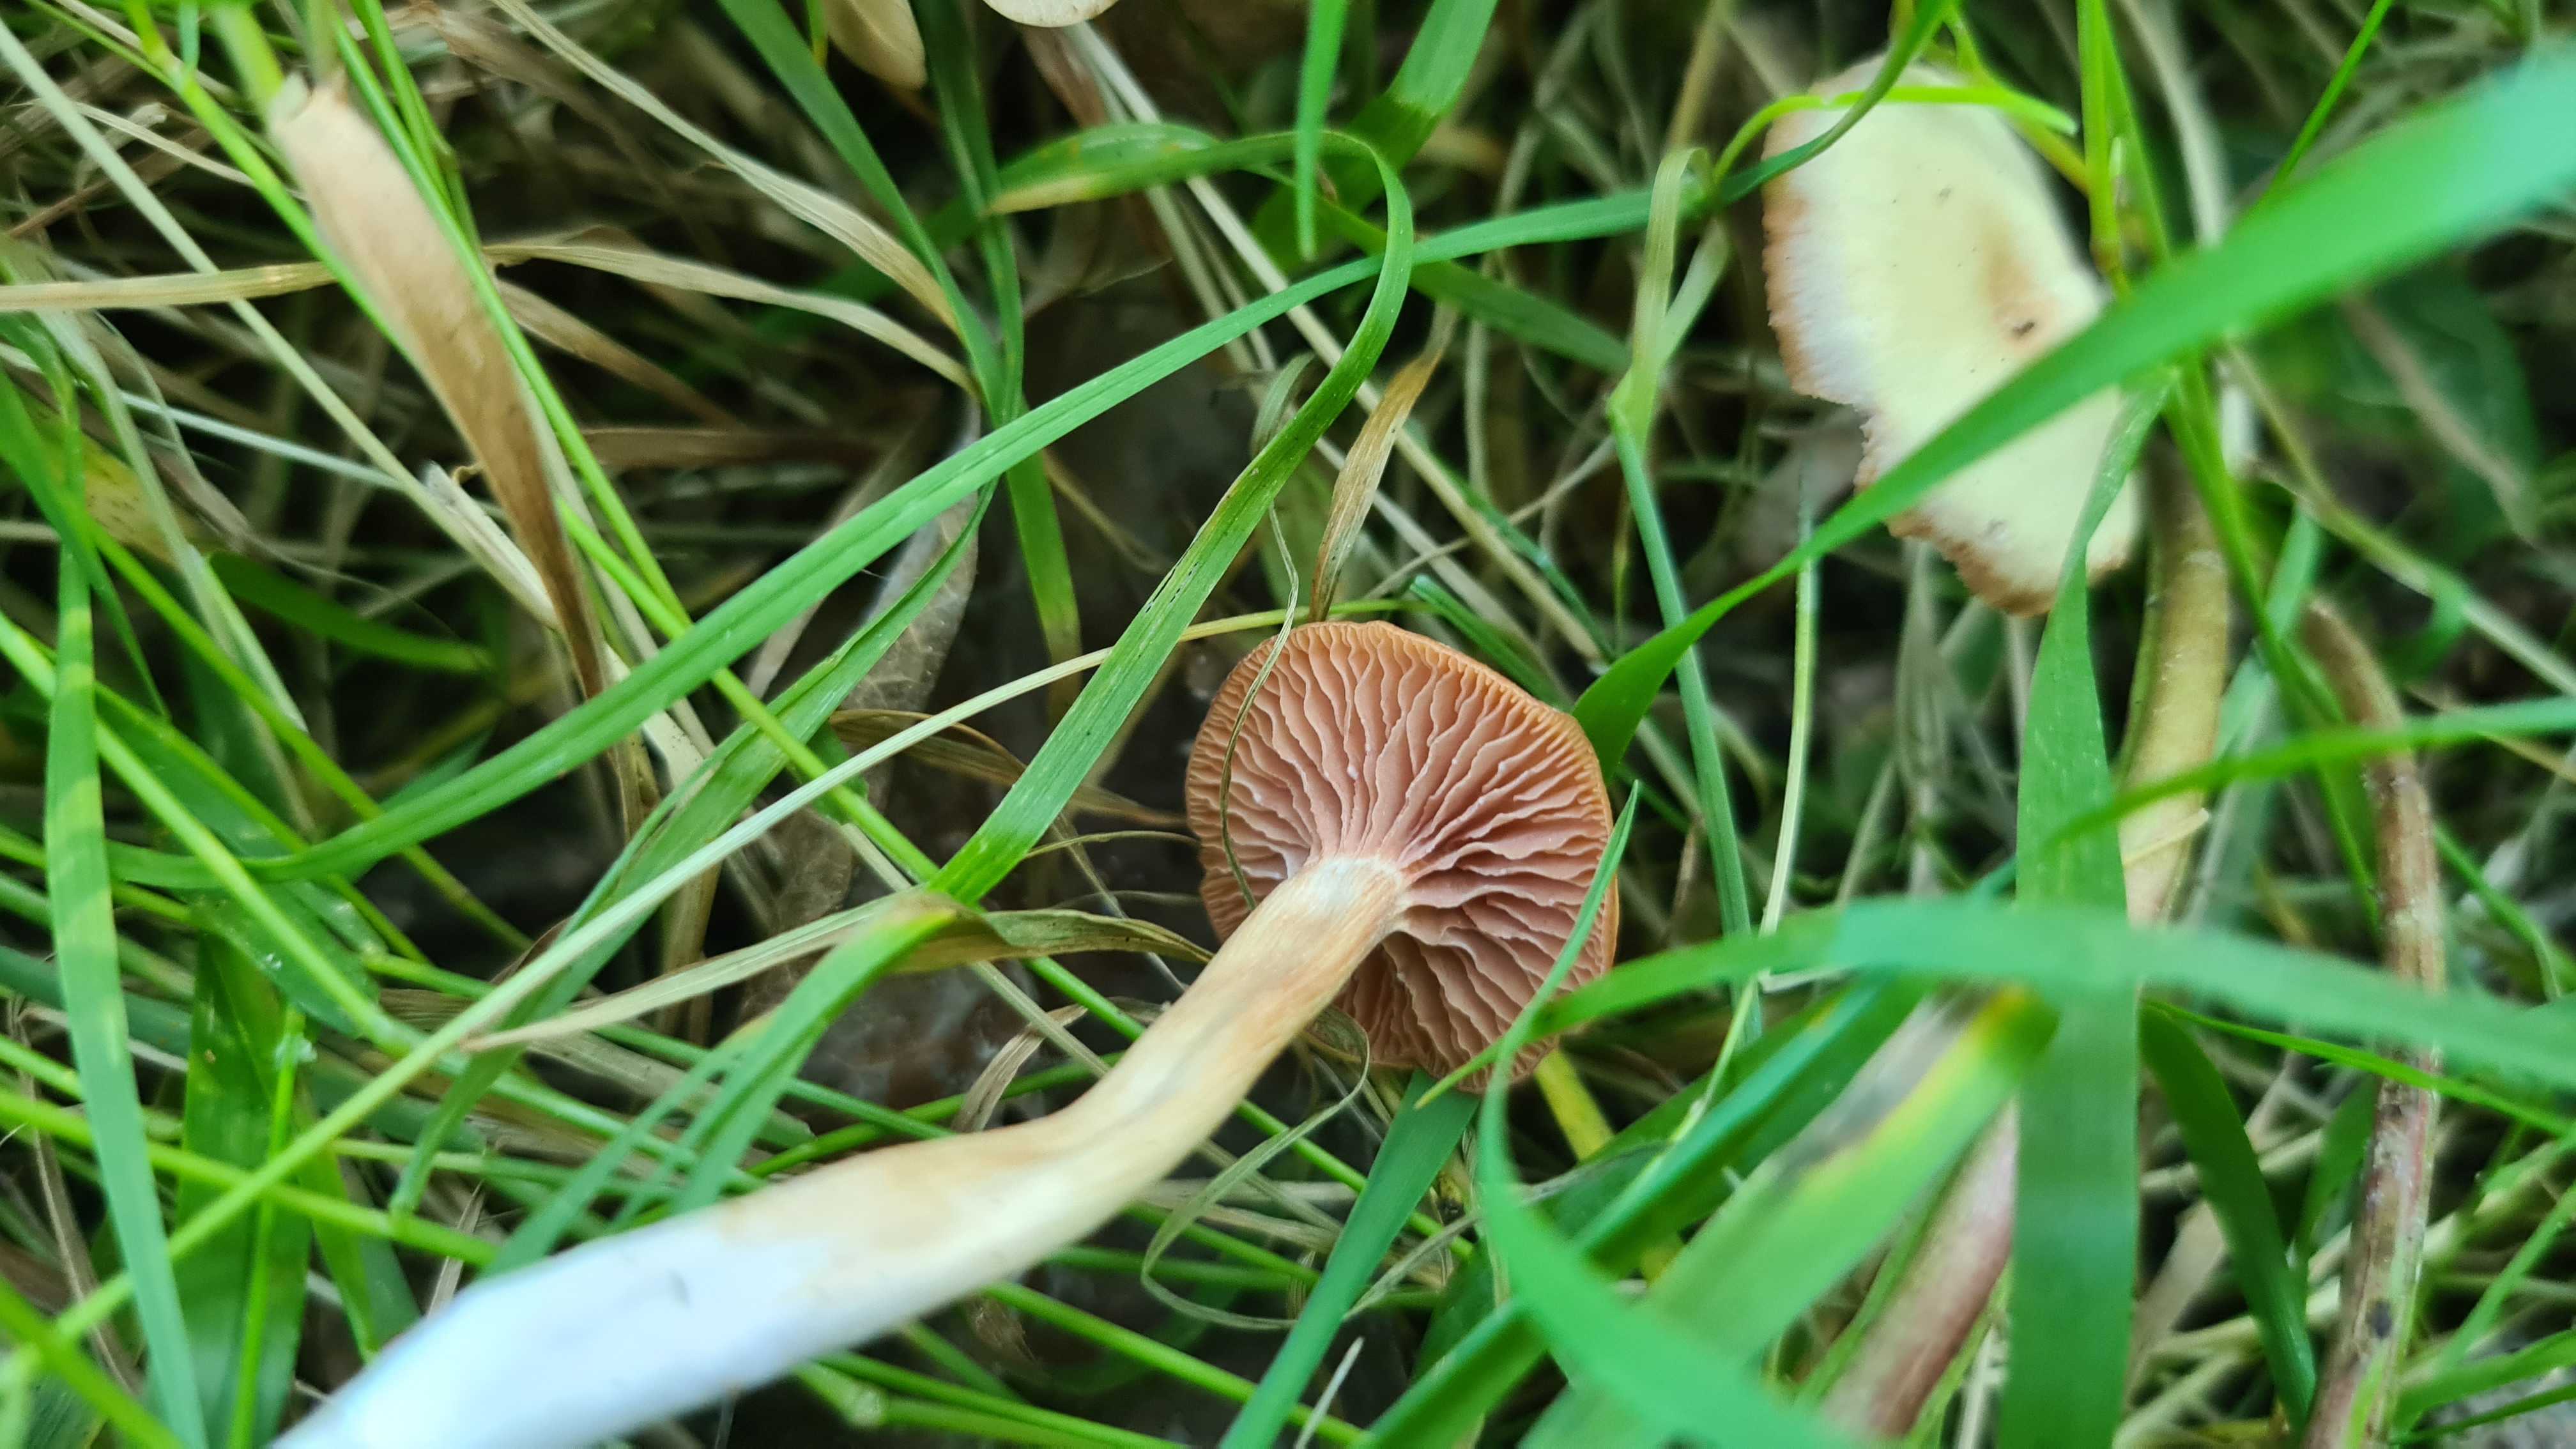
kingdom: Fungi
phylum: Basidiomycota
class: Agaricomycetes
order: Agaricales
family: Hydnangiaceae
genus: Laccaria
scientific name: Laccaria laccata
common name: rød ametysthat
